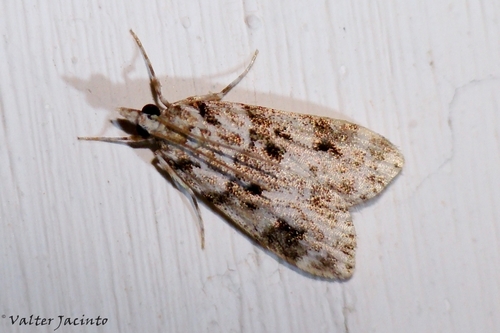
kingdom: Animalia
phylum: Arthropoda
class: Insecta
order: Lepidoptera
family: Crambidae
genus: Eudonia
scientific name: Eudonia delunella
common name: Pied grey
